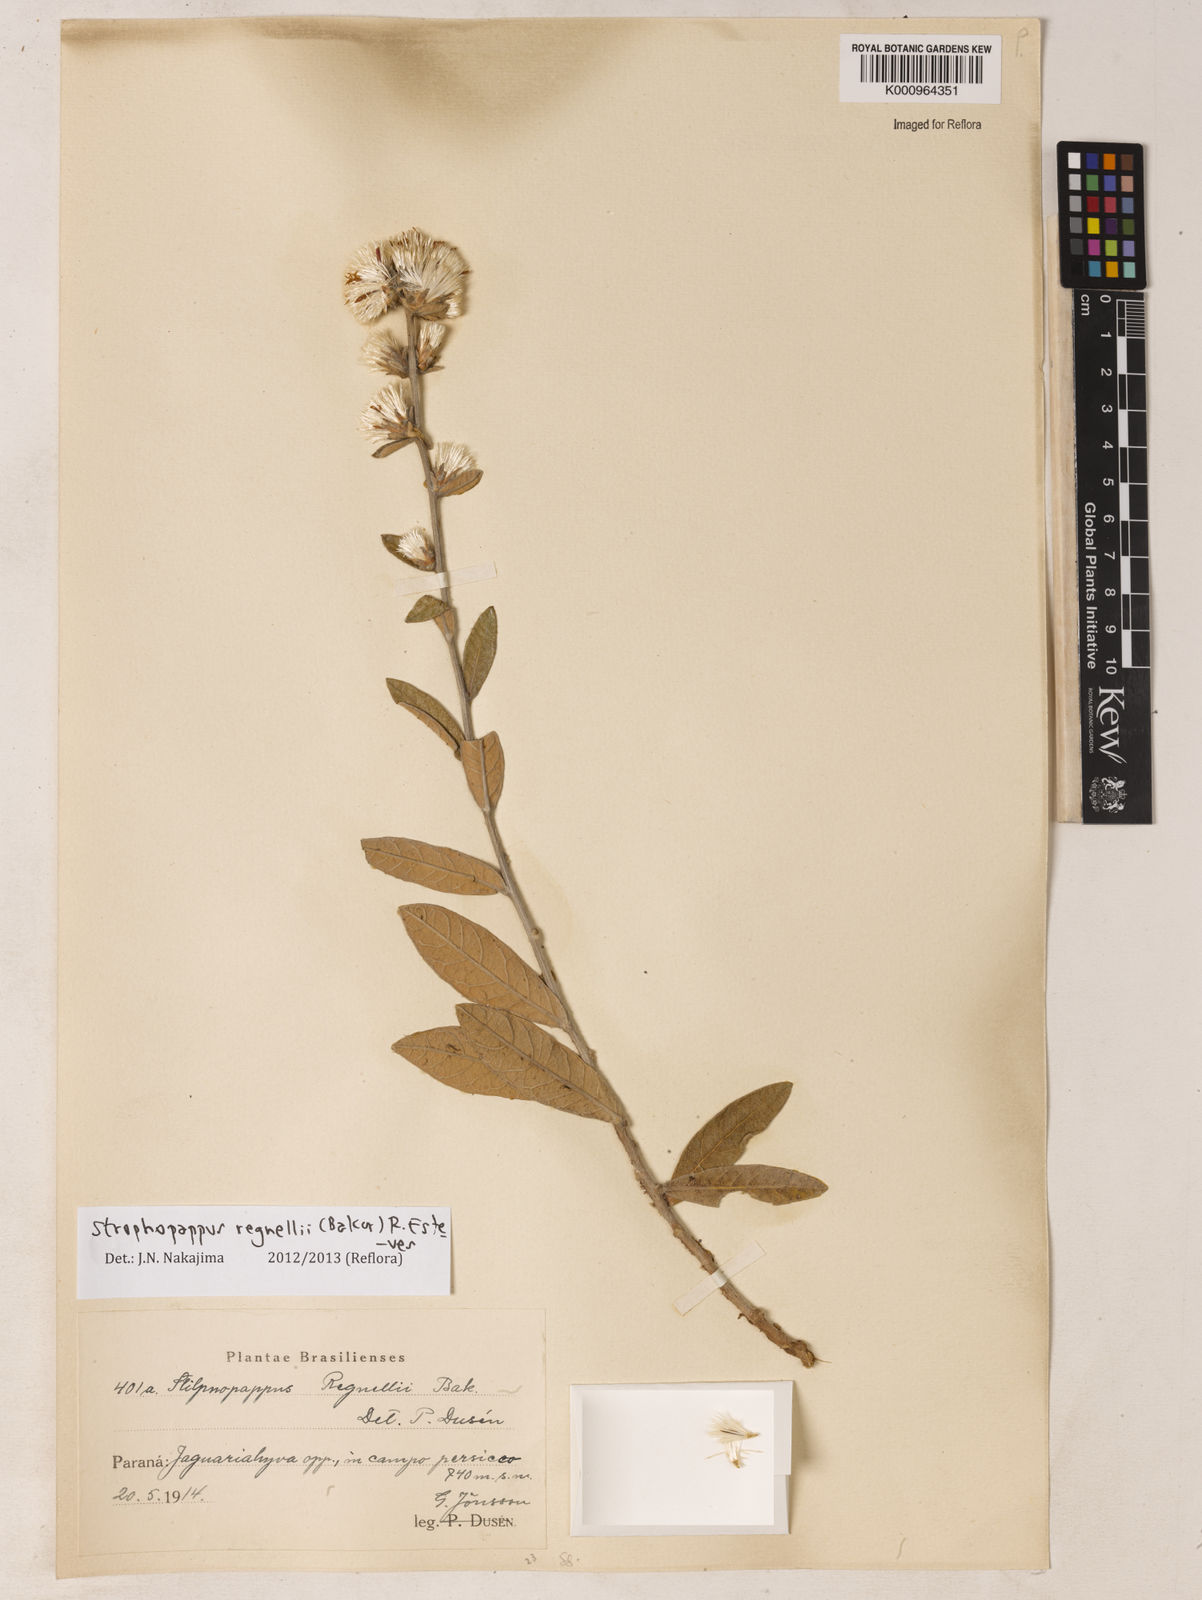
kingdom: Plantae
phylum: Tracheophyta
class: Magnoliopsida
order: Asterales
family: Asteraceae
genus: Stilpnopappus
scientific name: Stilpnopappus regnellii
